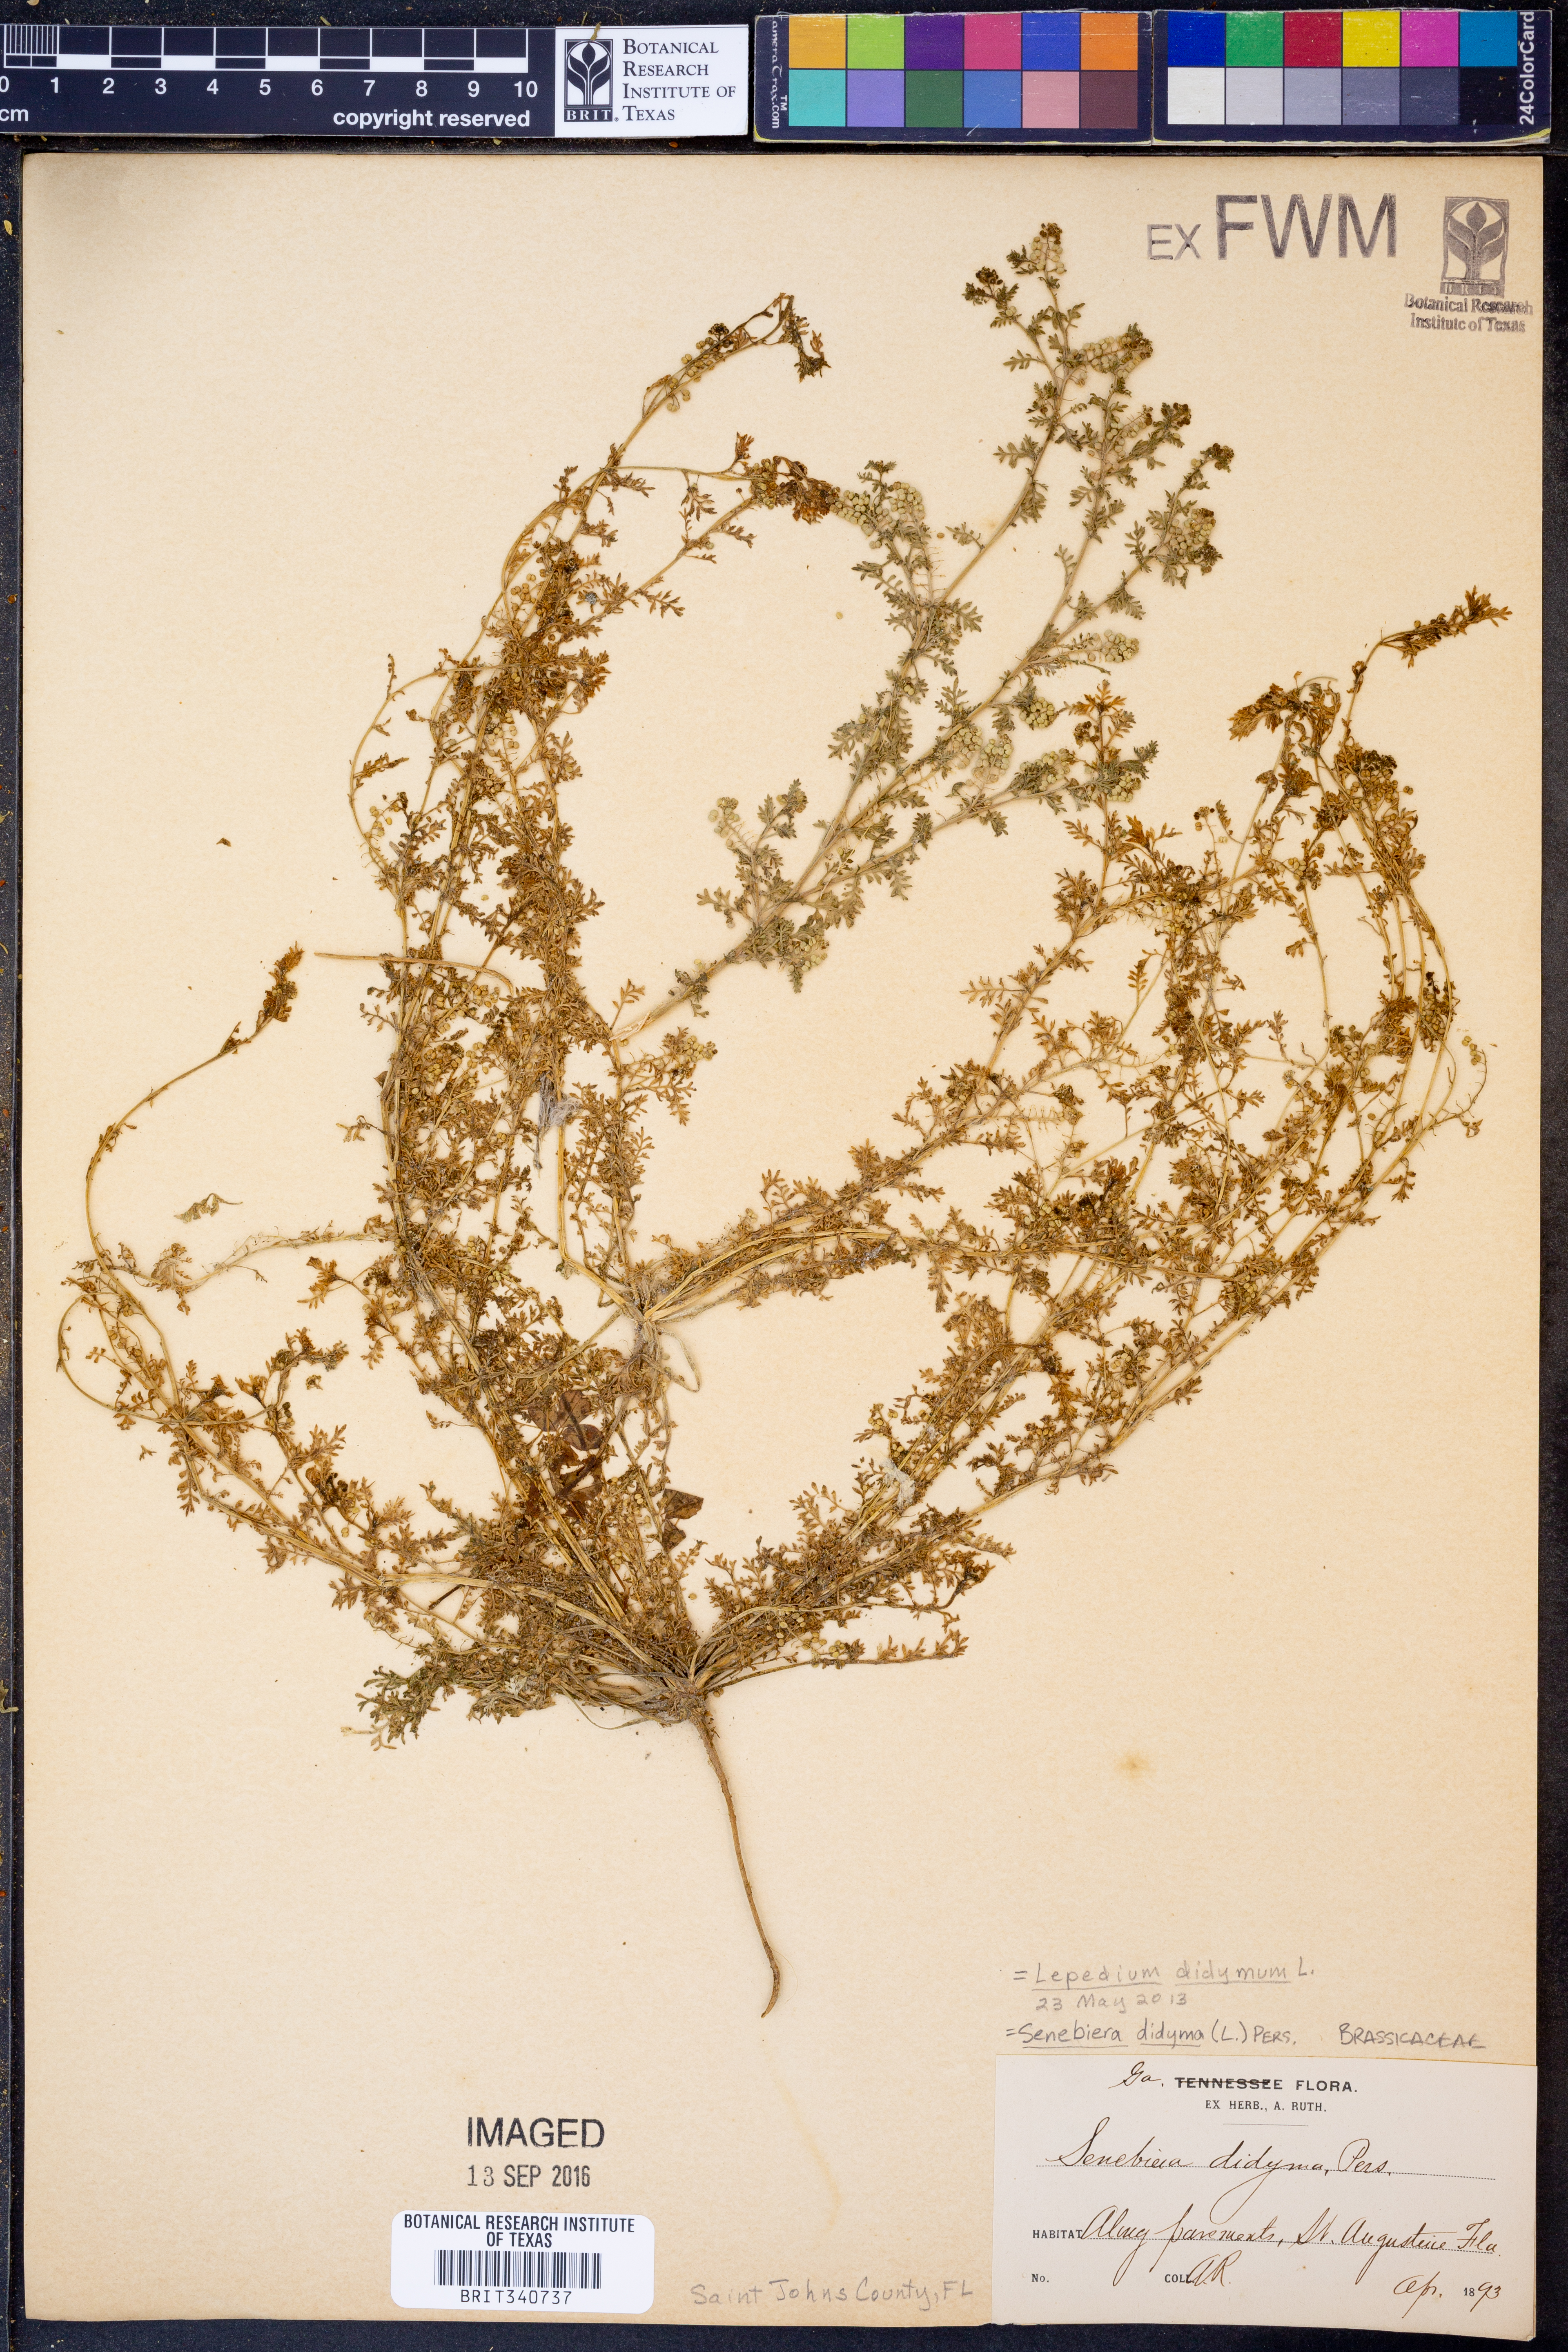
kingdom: Plantae
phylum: Tracheophyta
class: Magnoliopsida
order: Brassicales
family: Brassicaceae
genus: Lepidium
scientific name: Lepidium didymum
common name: Lesser swinecress
